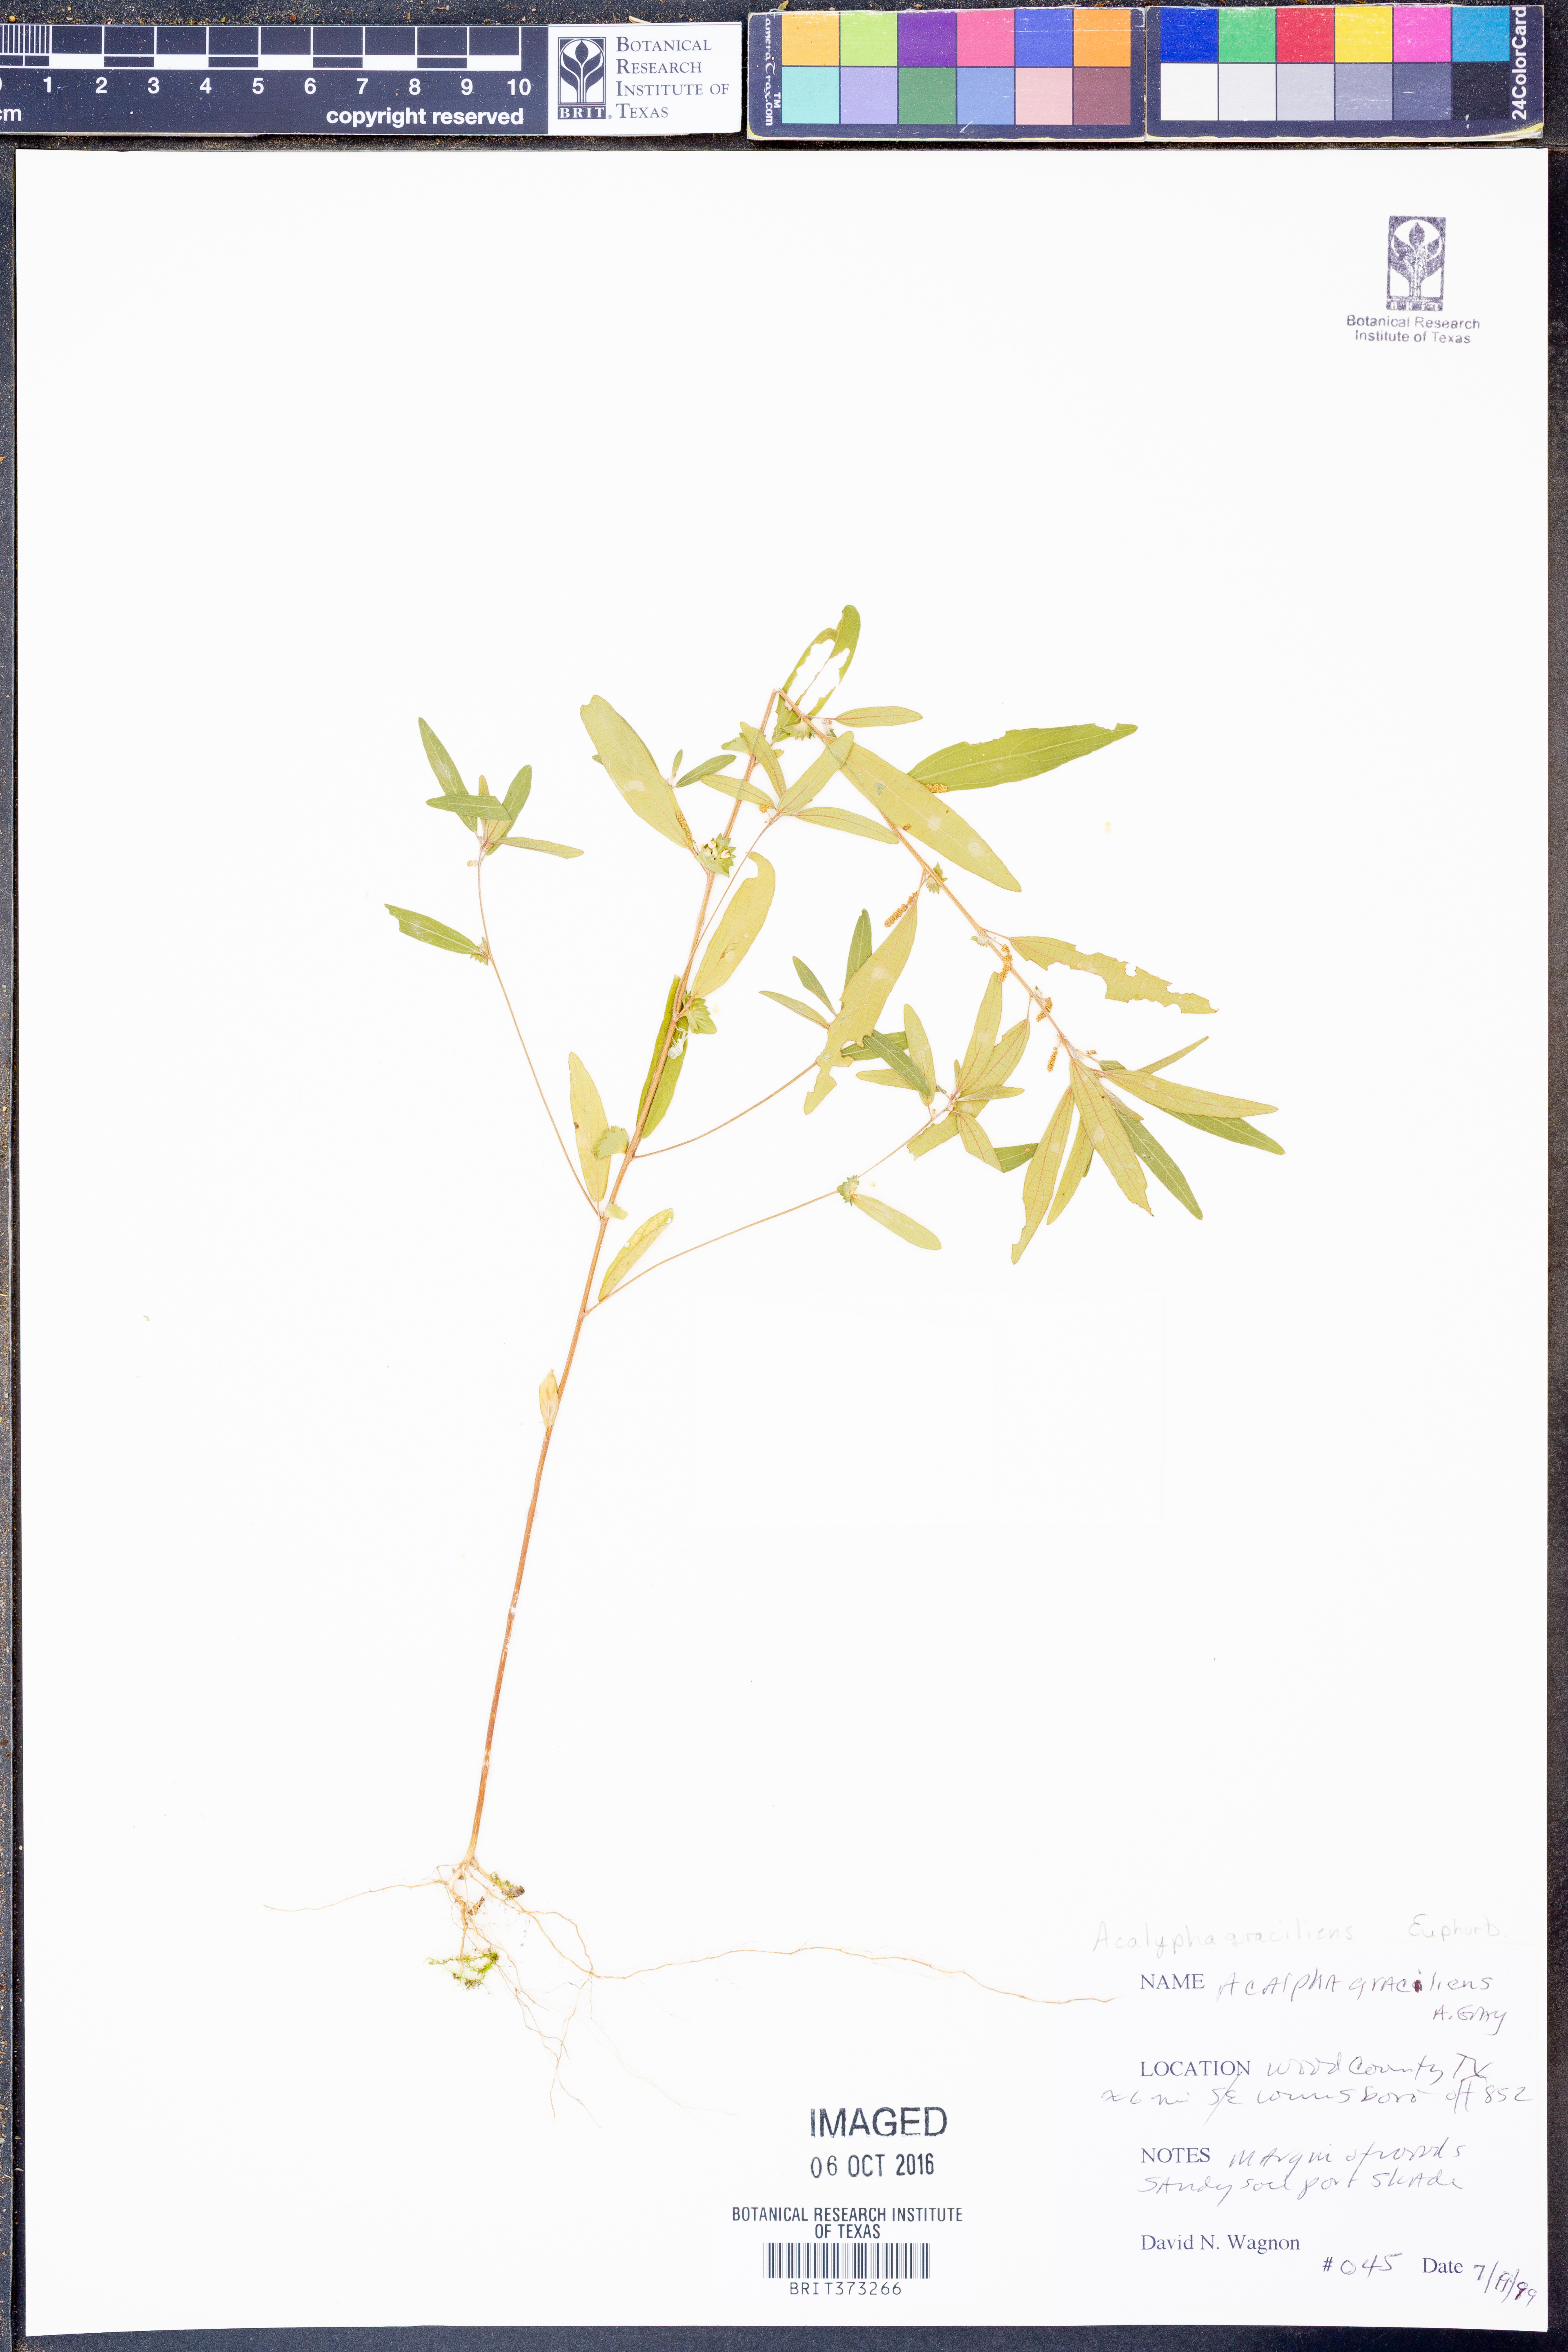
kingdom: Plantae
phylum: Tracheophyta
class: Magnoliopsida
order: Malpighiales
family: Euphorbiaceae
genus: Acalypha
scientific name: Acalypha gracilens
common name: Slender three-seeded mercury
